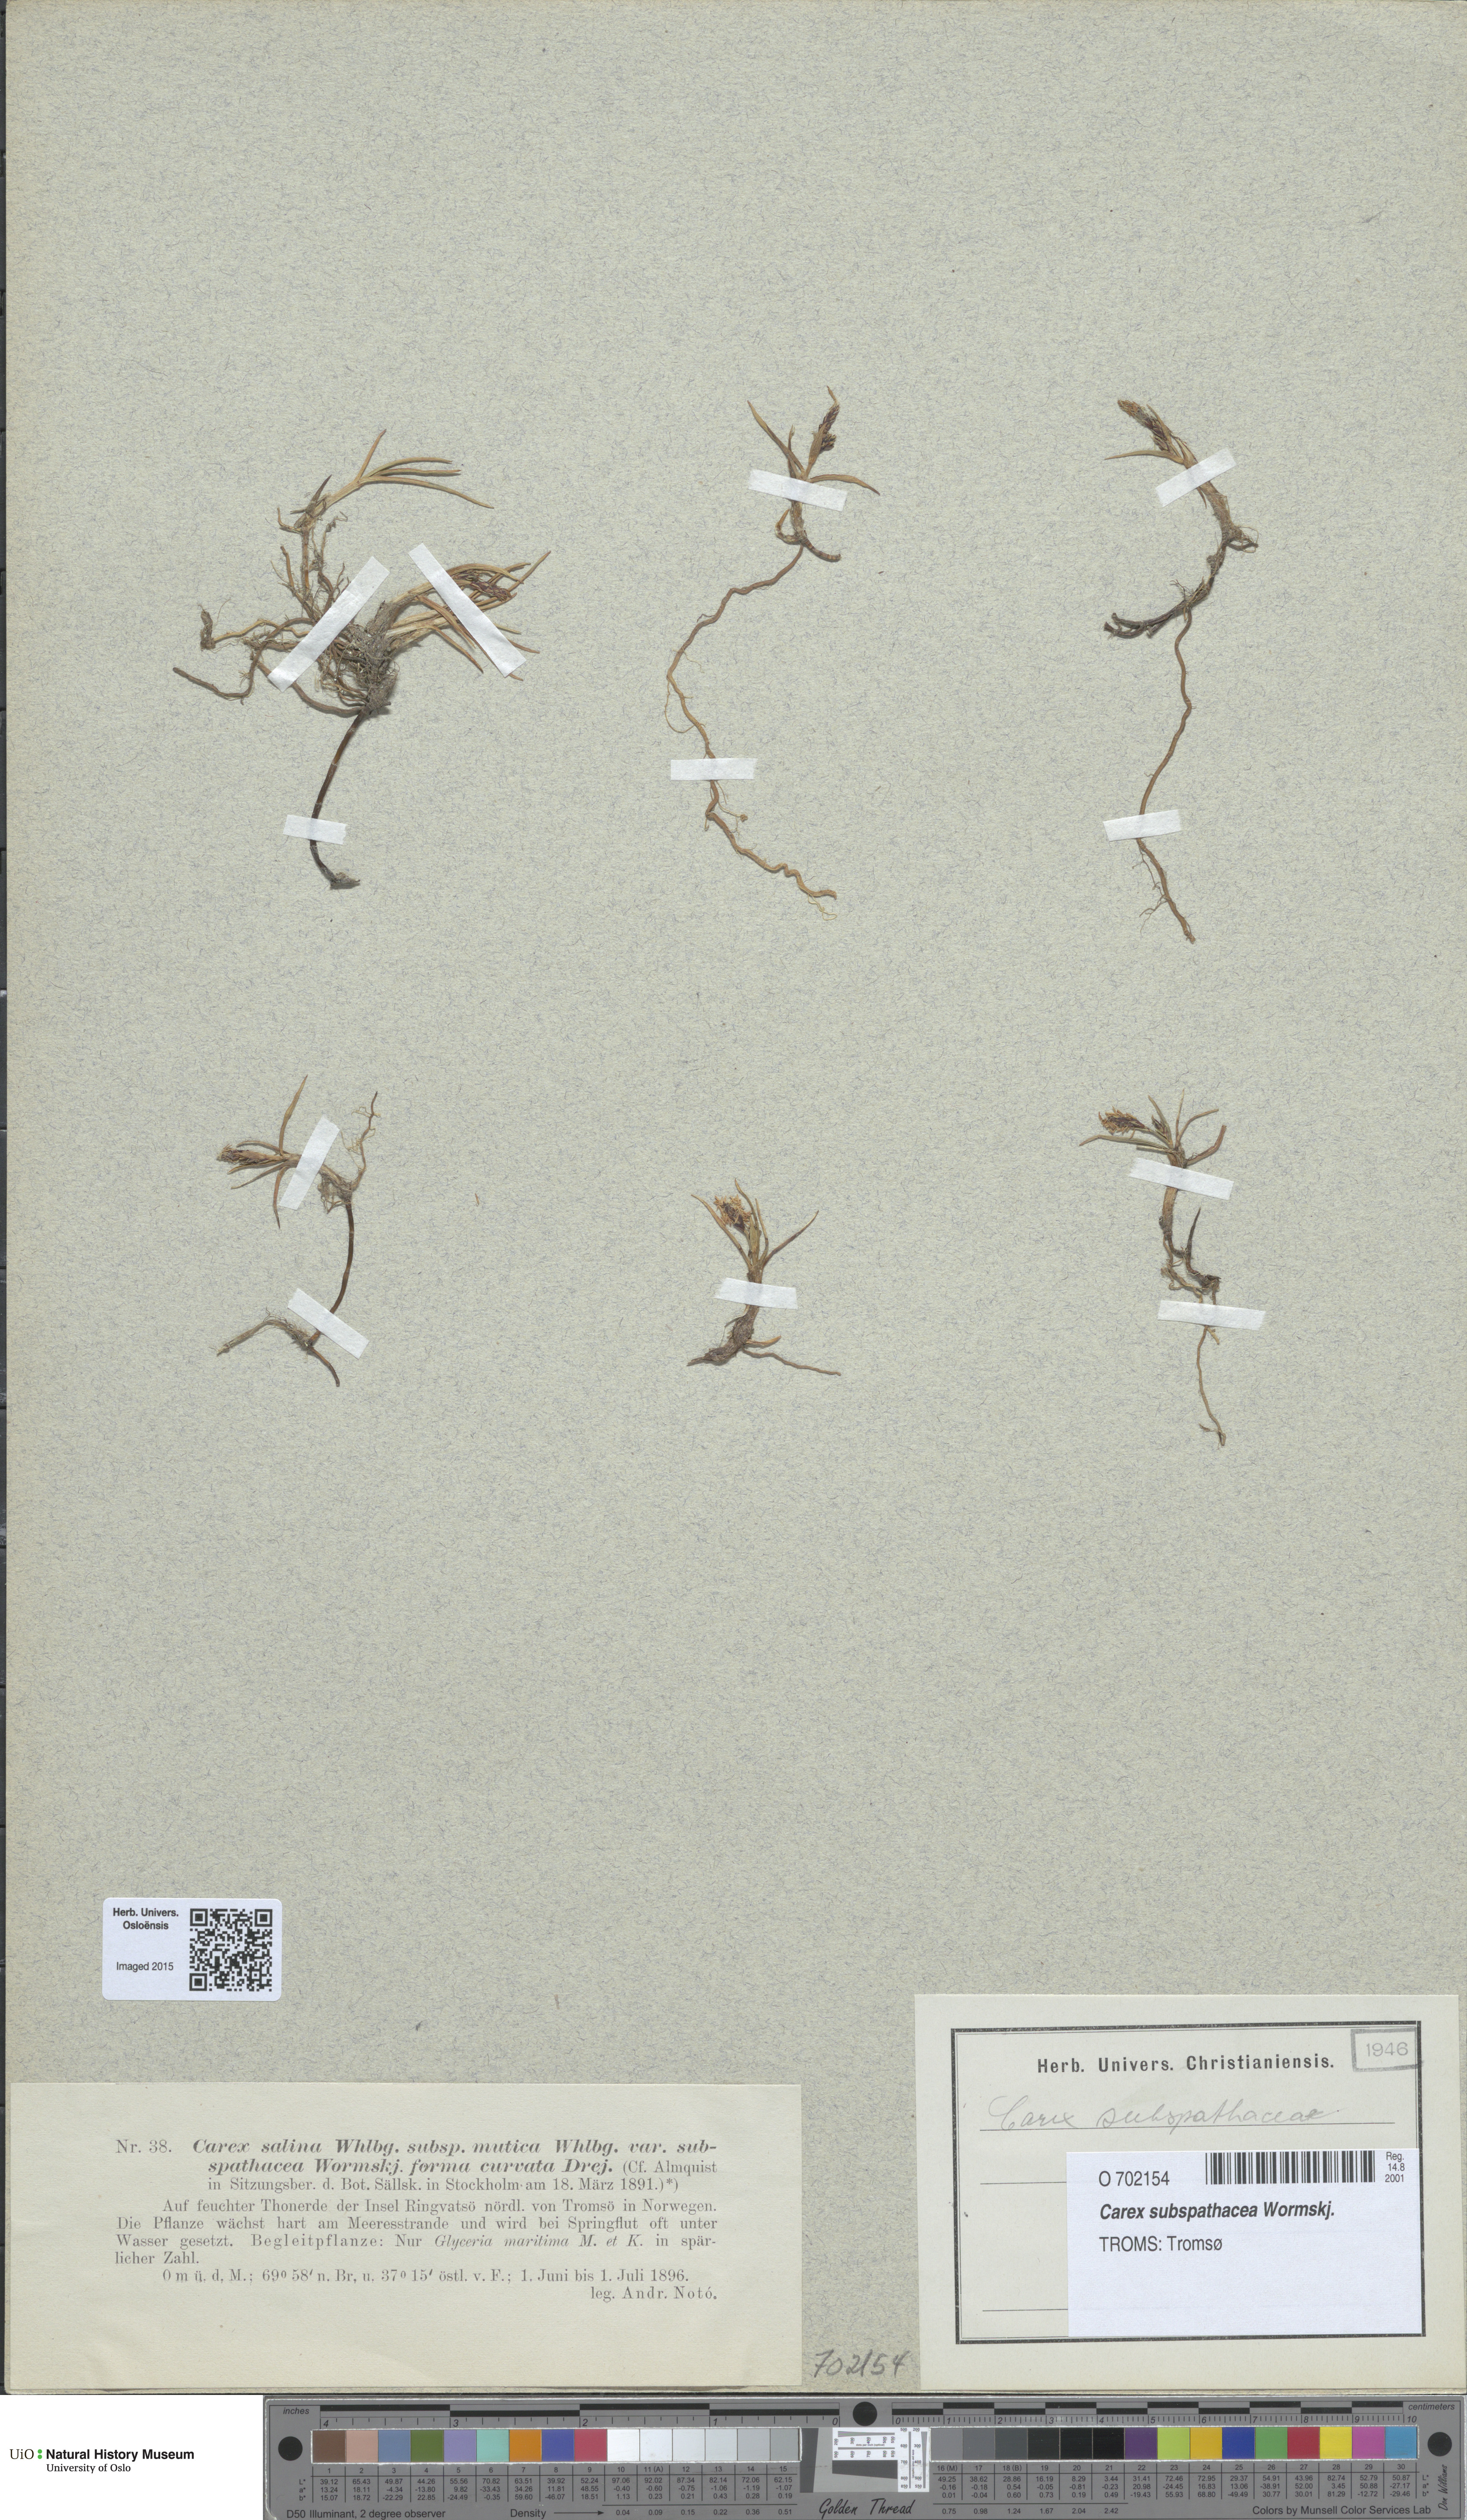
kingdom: Plantae
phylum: Tracheophyta
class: Liliopsida
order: Poales
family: Cyperaceae
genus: Carex
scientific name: Carex subspathacea
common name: Hoppner's sedge
